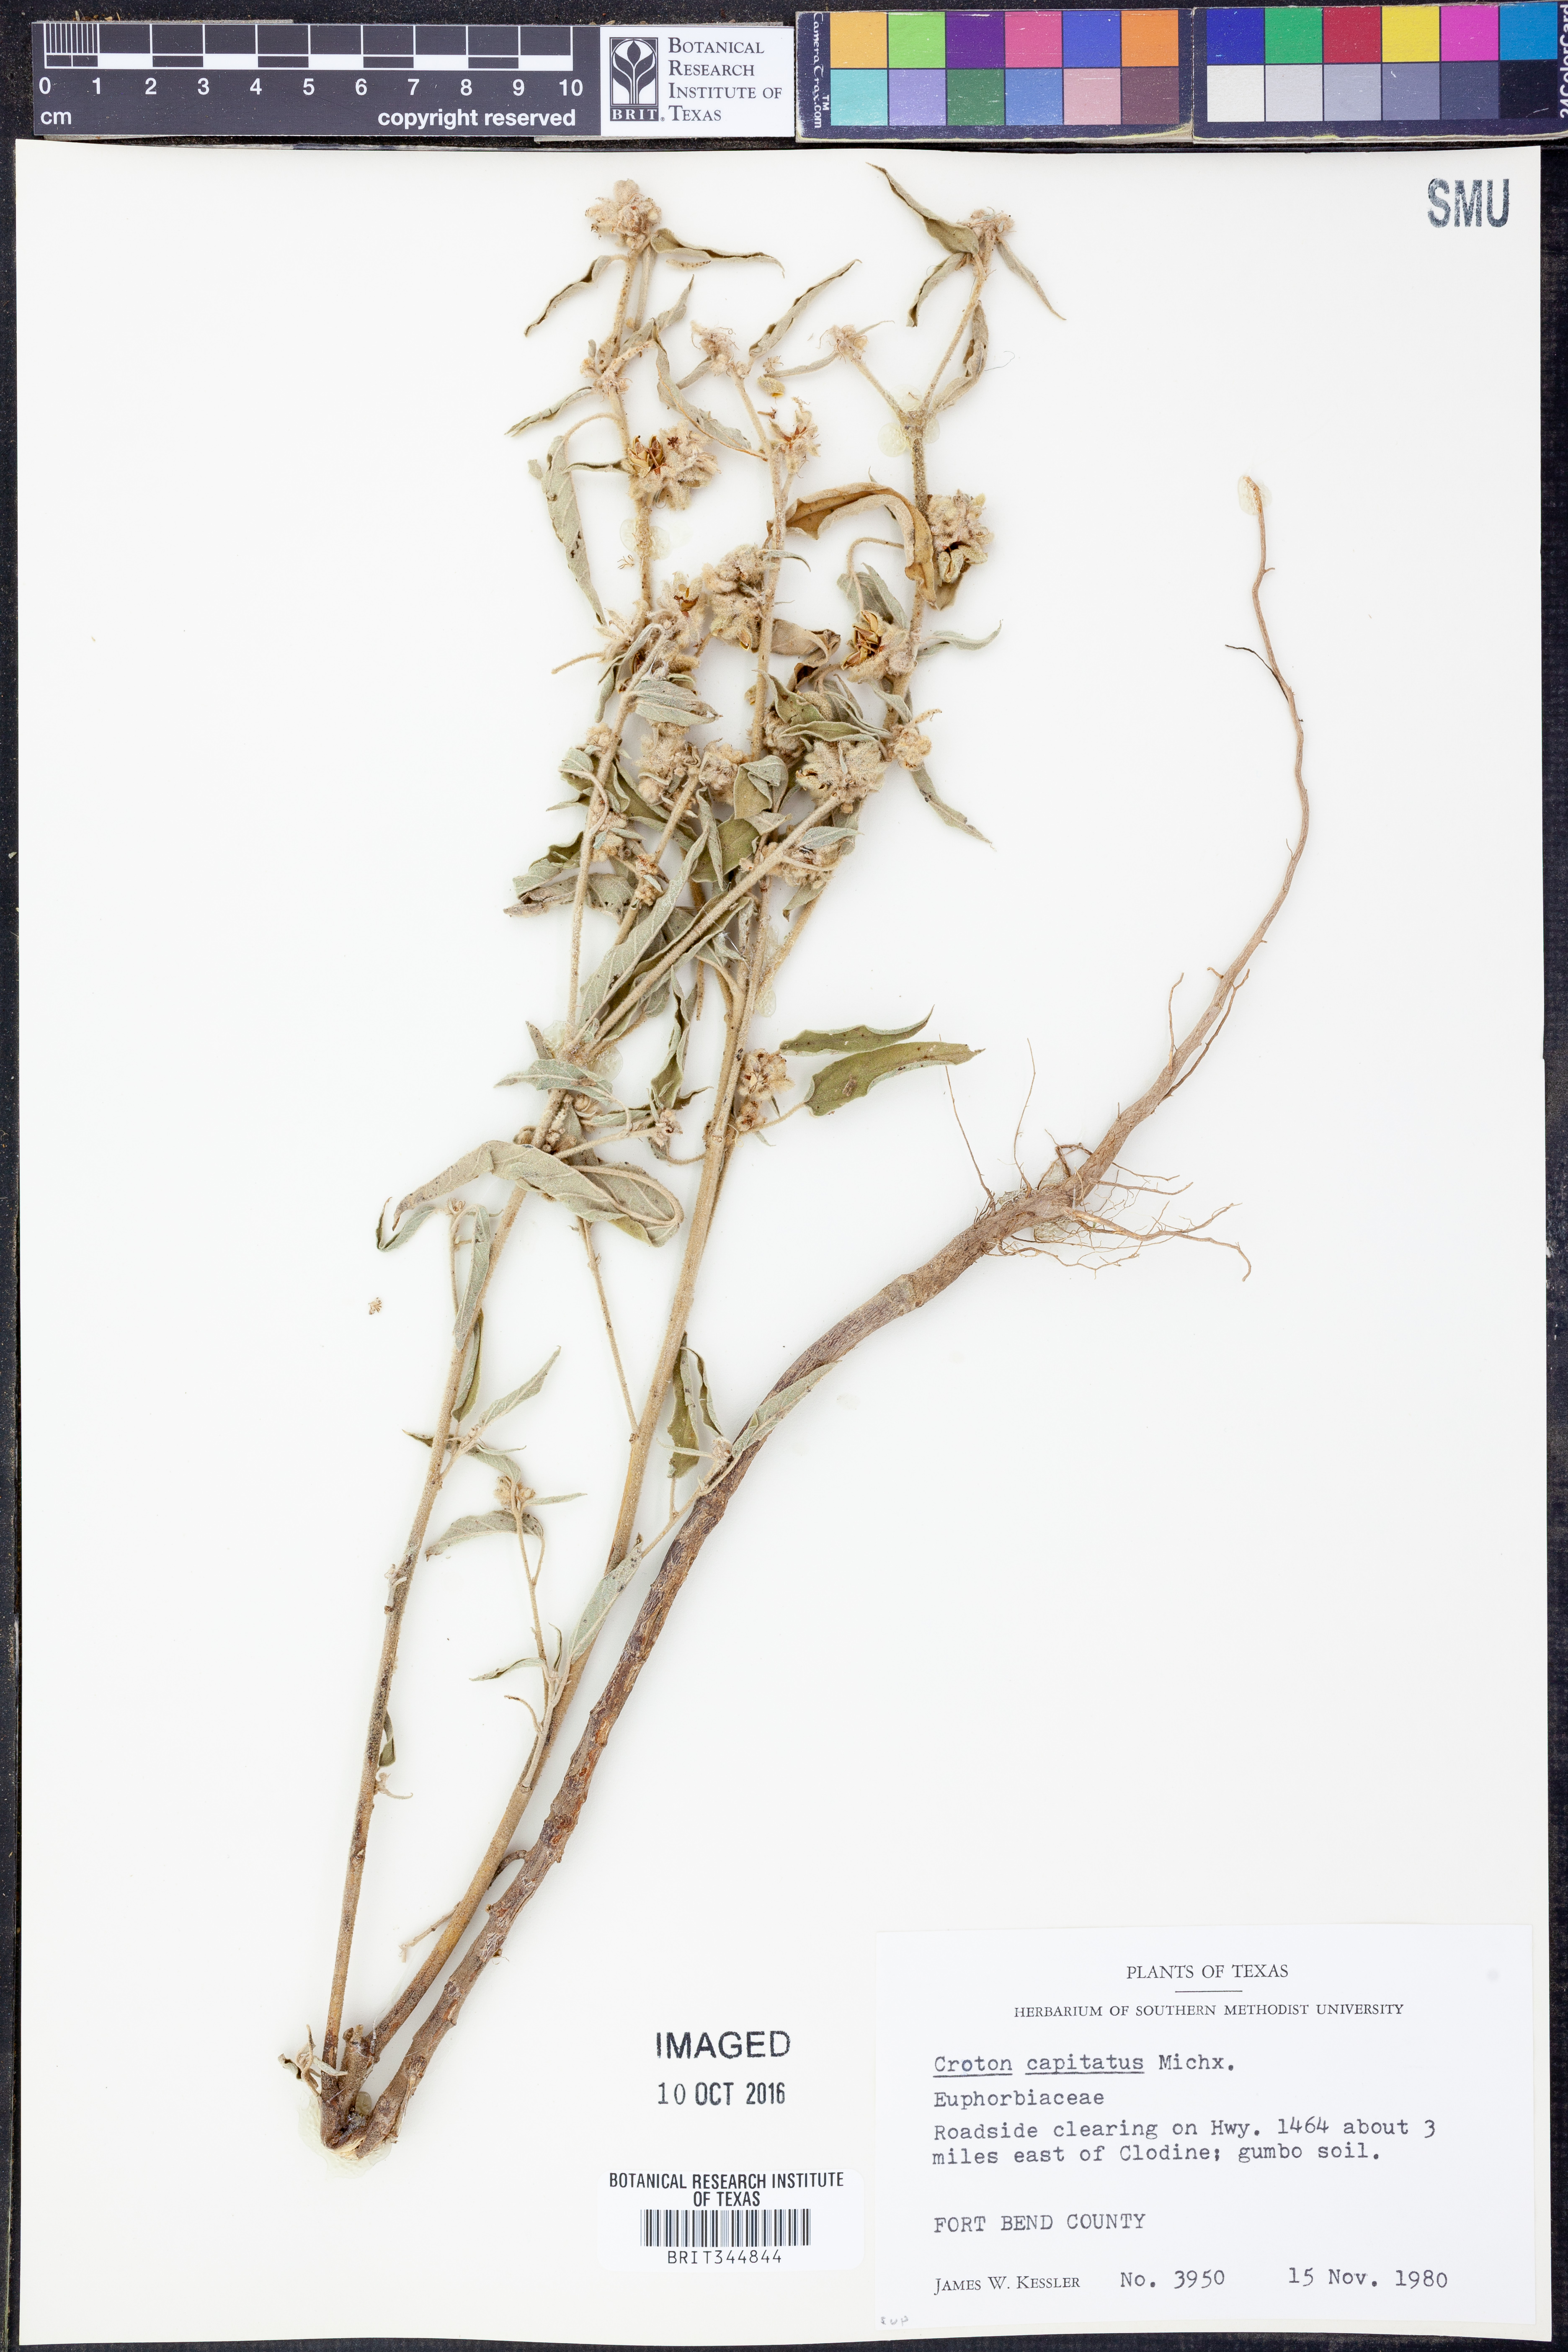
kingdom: Plantae
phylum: Tracheophyta
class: Magnoliopsida
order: Malpighiales
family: Euphorbiaceae
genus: Croton
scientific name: Croton capitatus
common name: Woolly croton
